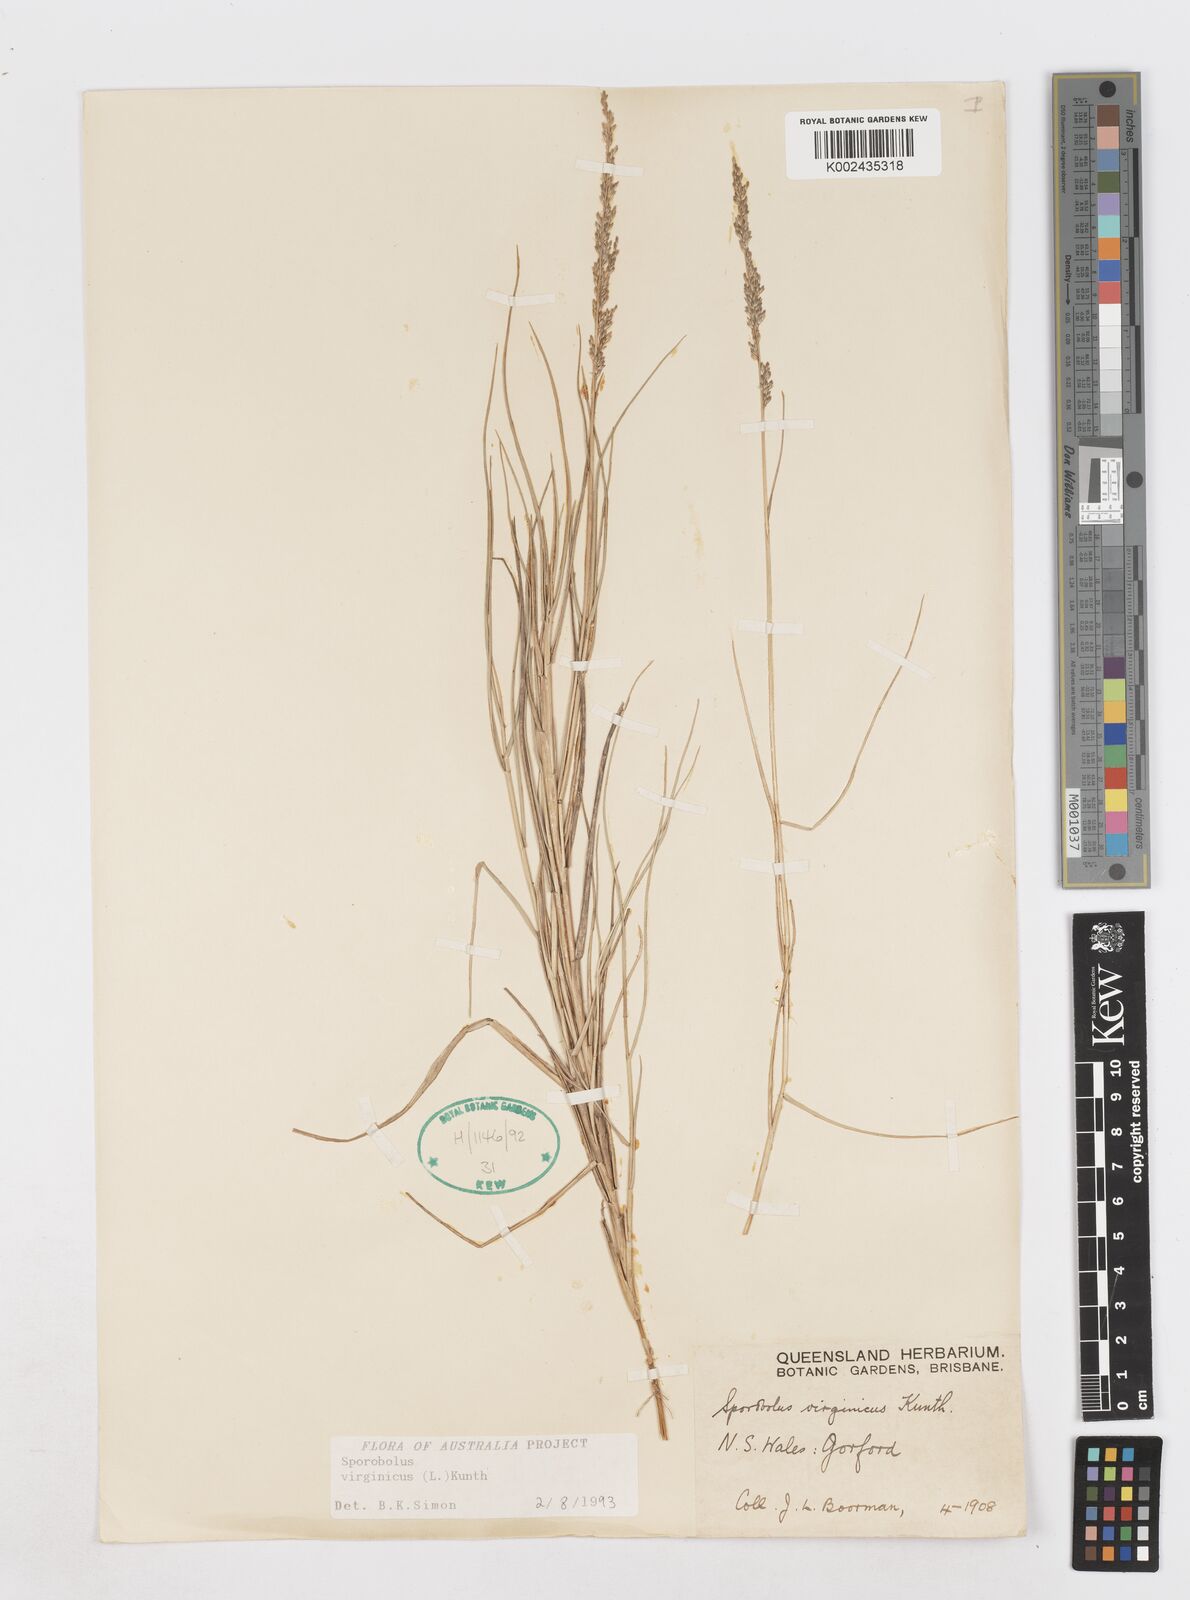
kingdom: Plantae
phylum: Tracheophyta
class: Liliopsida
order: Poales
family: Poaceae
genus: Sporobolus
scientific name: Sporobolus virginicus
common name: Beach dropseed
